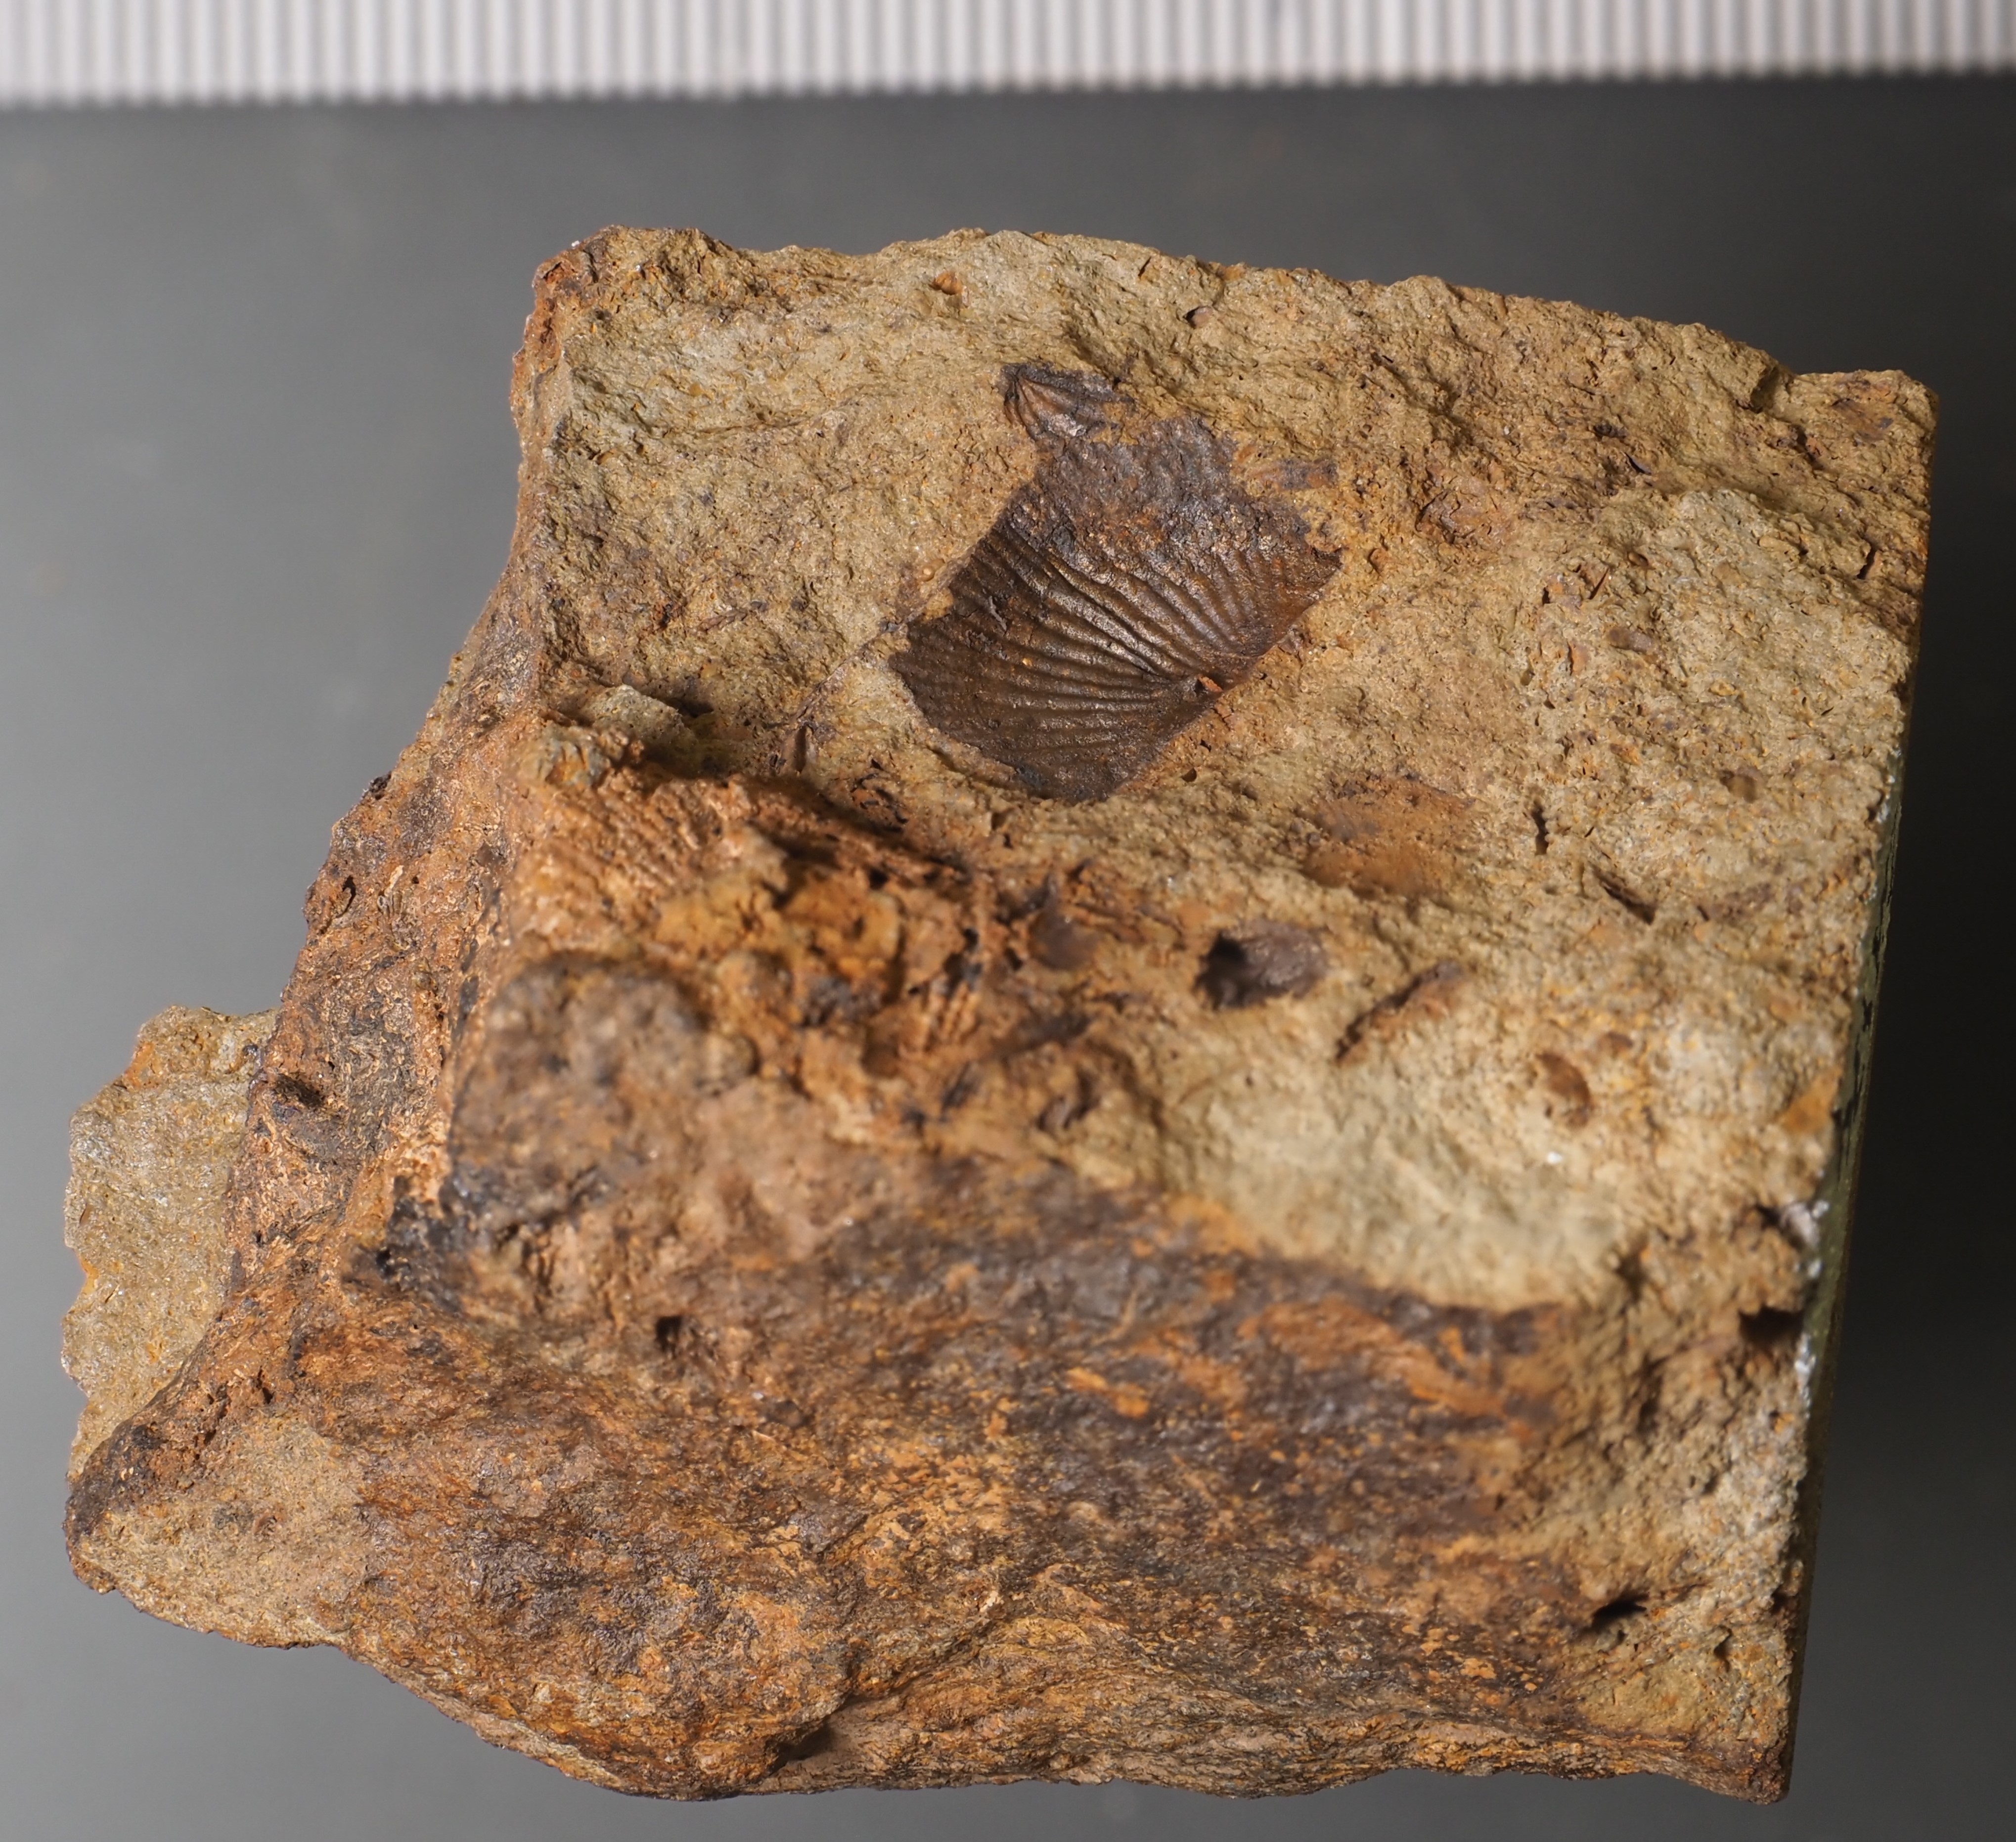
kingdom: Animalia
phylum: Arthropoda
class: Ostracoda
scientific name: Ostracoda
